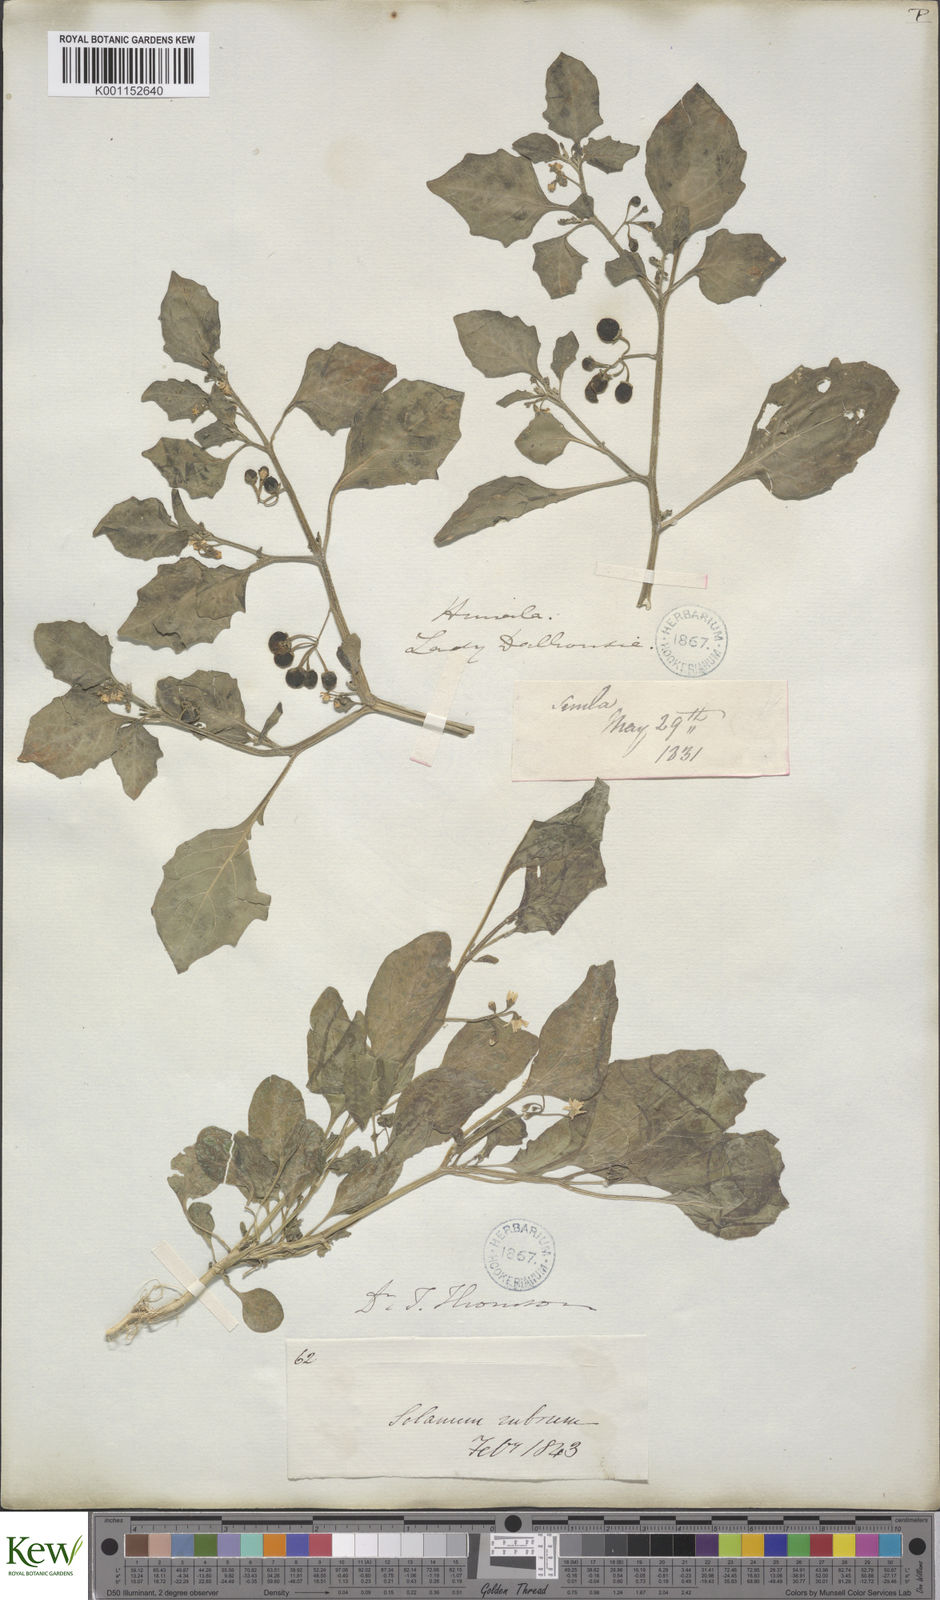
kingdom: Plantae
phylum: Tracheophyta
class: Magnoliopsida
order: Solanales
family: Solanaceae
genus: Solanum
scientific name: Solanum nigrum
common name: Black nightshade
